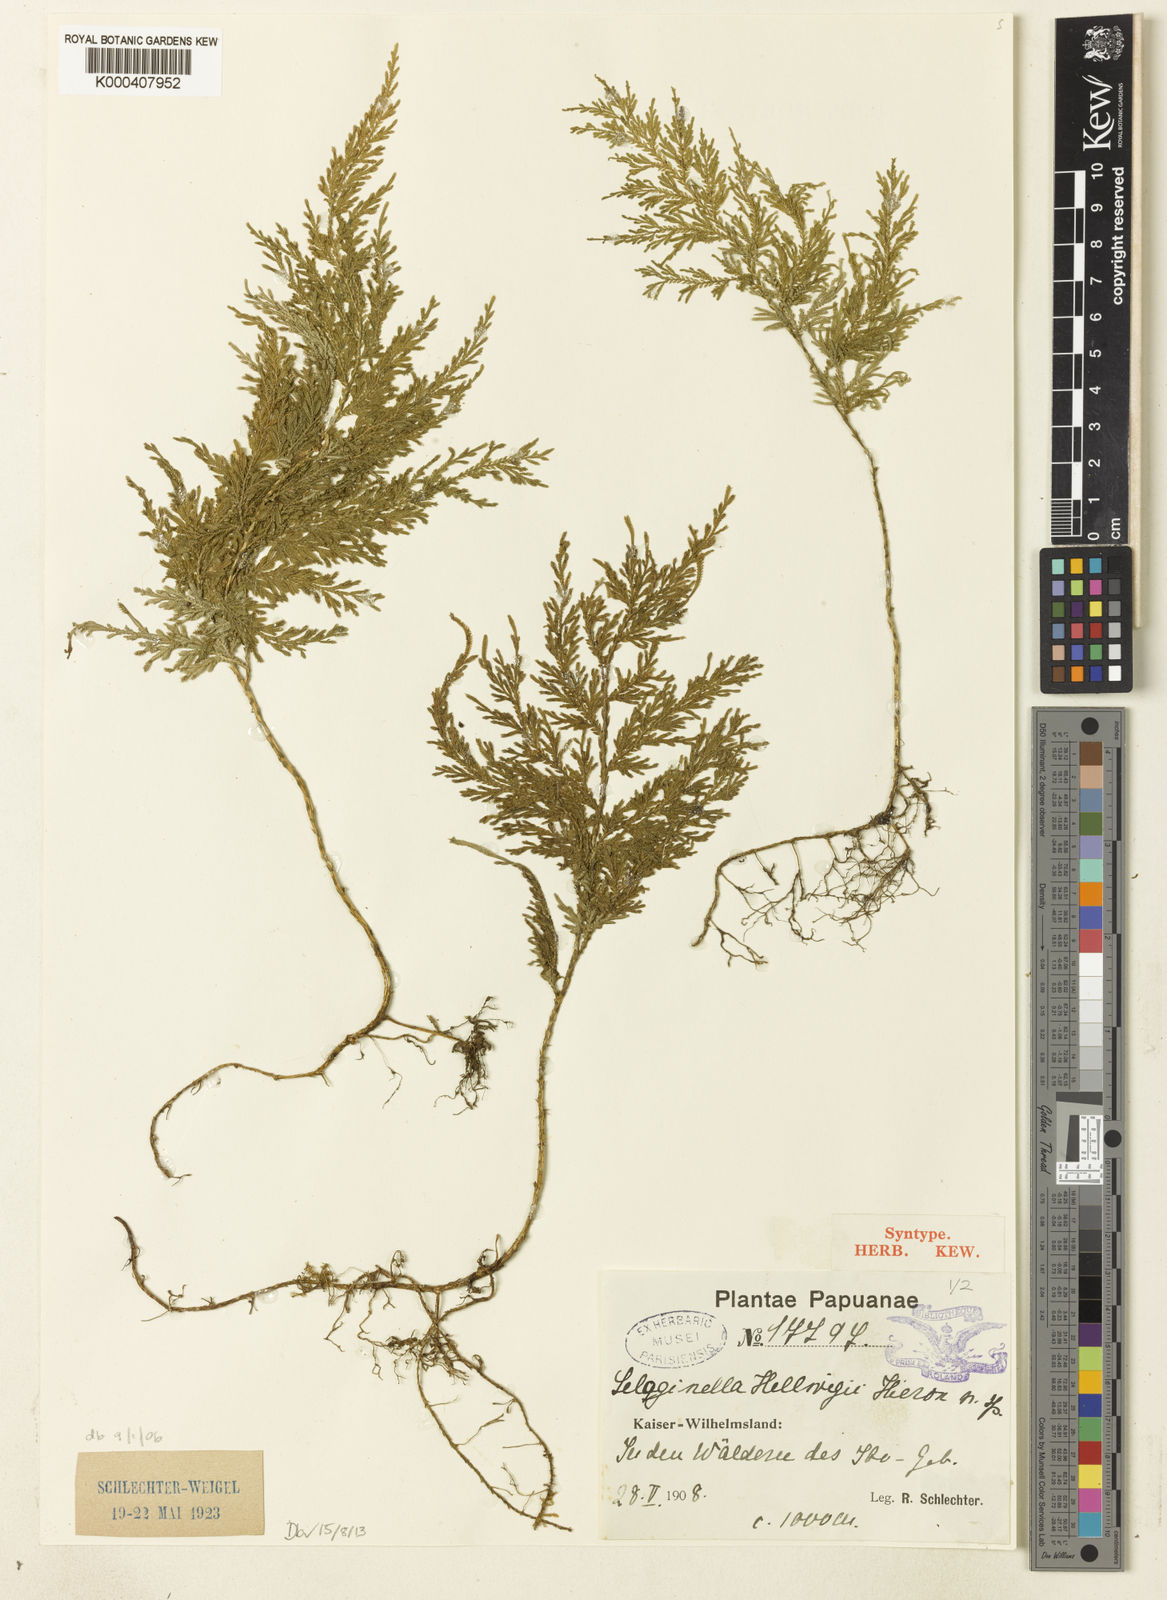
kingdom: Plantae
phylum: Tracheophyta
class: Lycopodiopsida
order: Selaginellales
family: Selaginellaceae
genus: Selaginella
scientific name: Selaginella hellwigii
